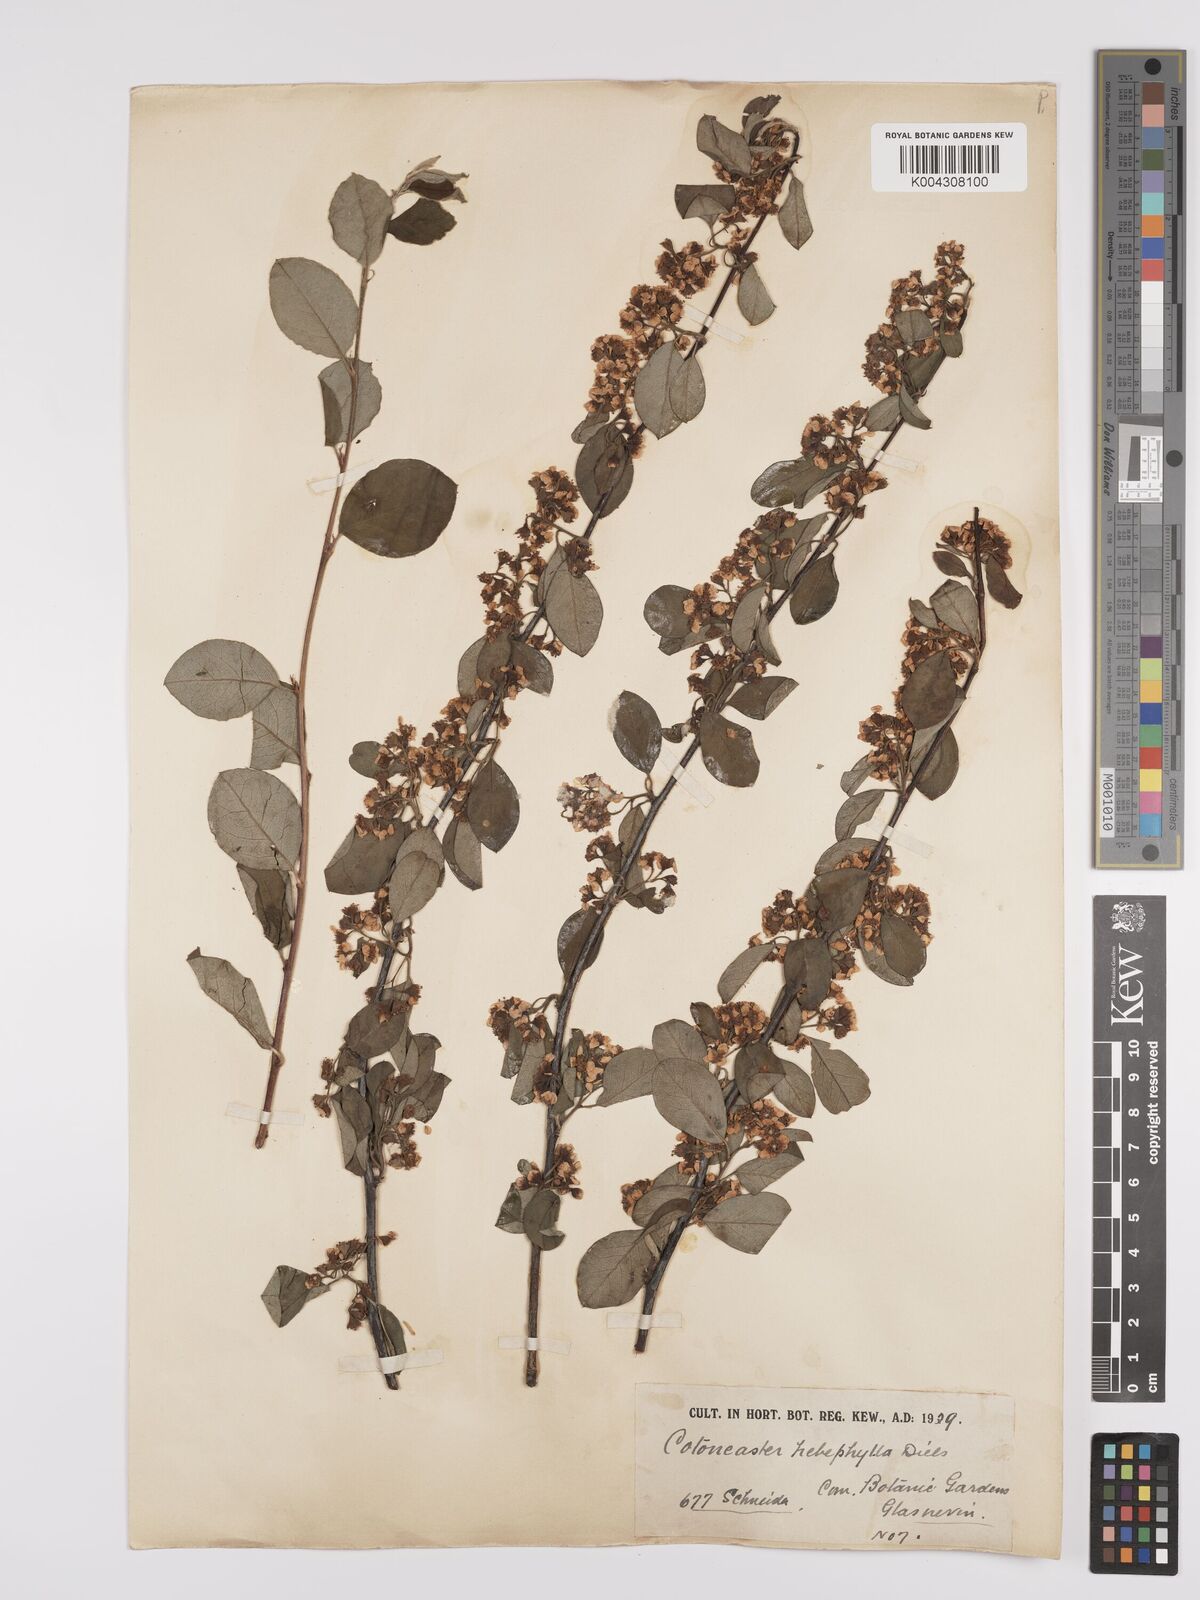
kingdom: Plantae
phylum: Tracheophyta
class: Magnoliopsida
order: Rosales
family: Rosaceae
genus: Cotoneaster
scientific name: Cotoneaster hebephyllus
